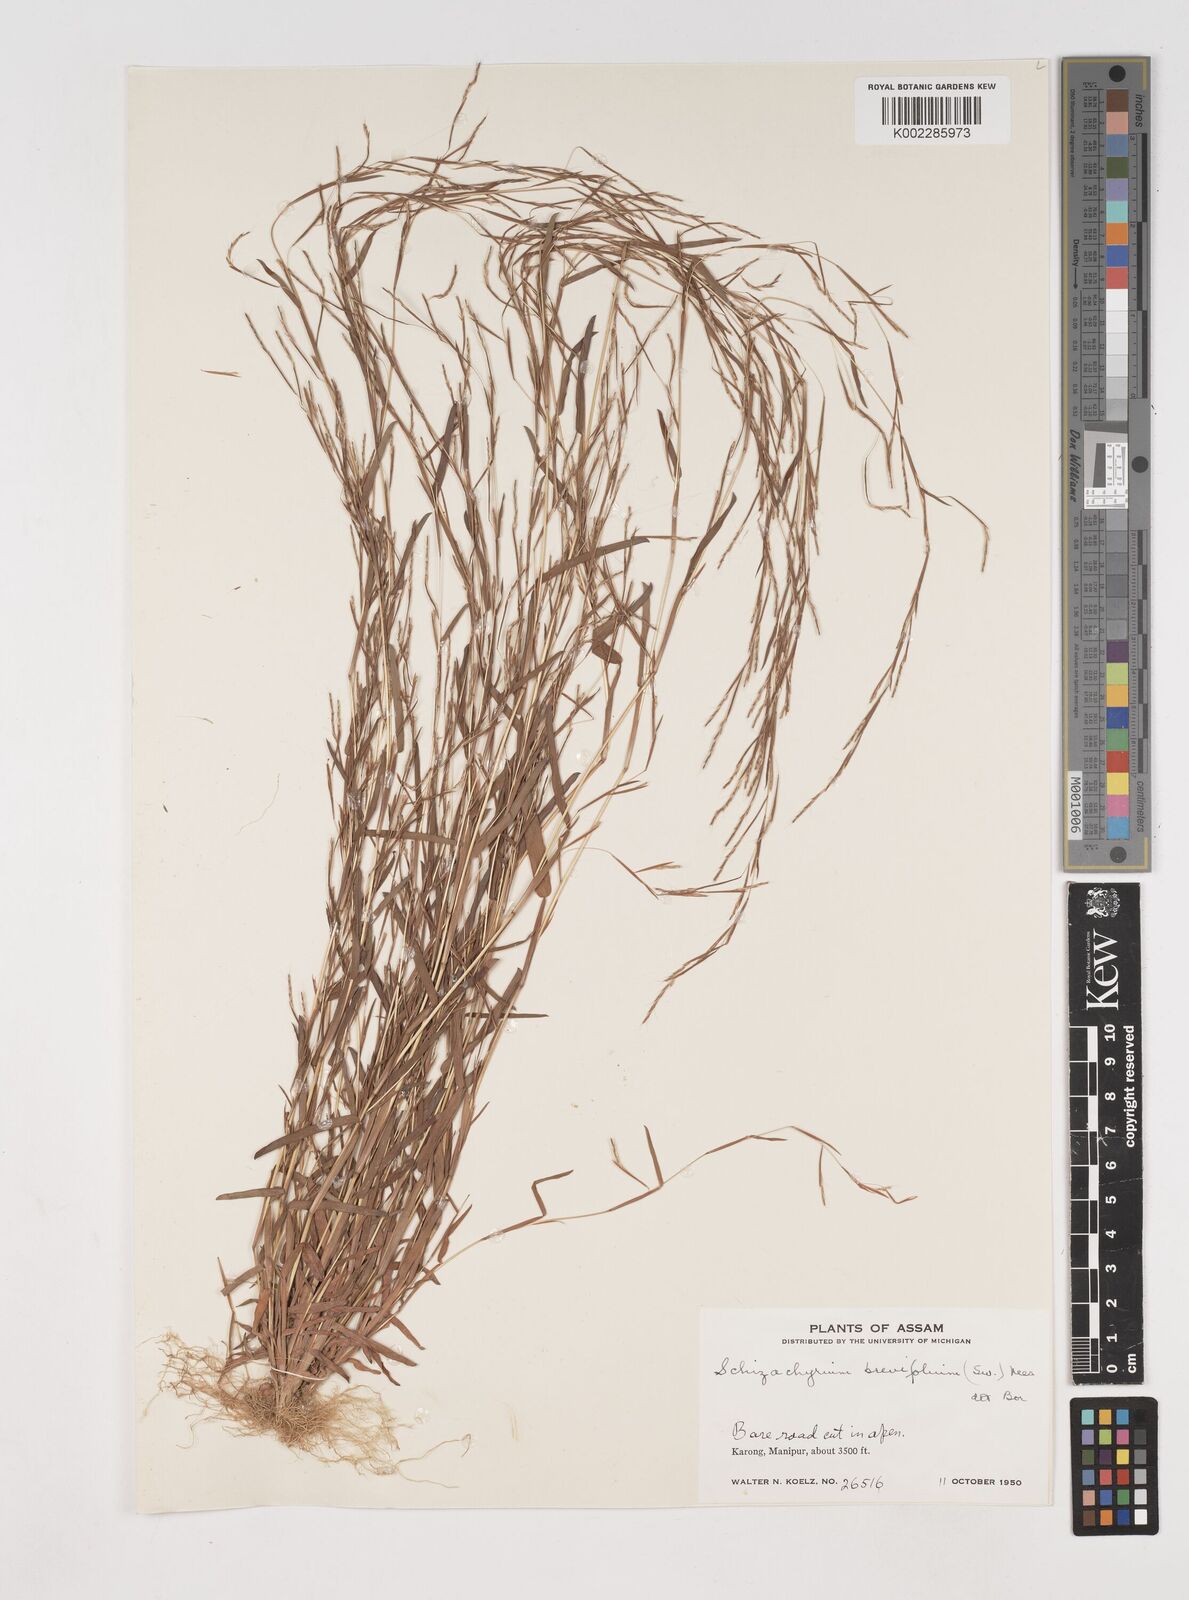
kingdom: Plantae
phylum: Tracheophyta
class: Liliopsida
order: Poales
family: Poaceae
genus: Schizachyrium
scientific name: Schizachyrium brevifolium
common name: Serillo dulce
